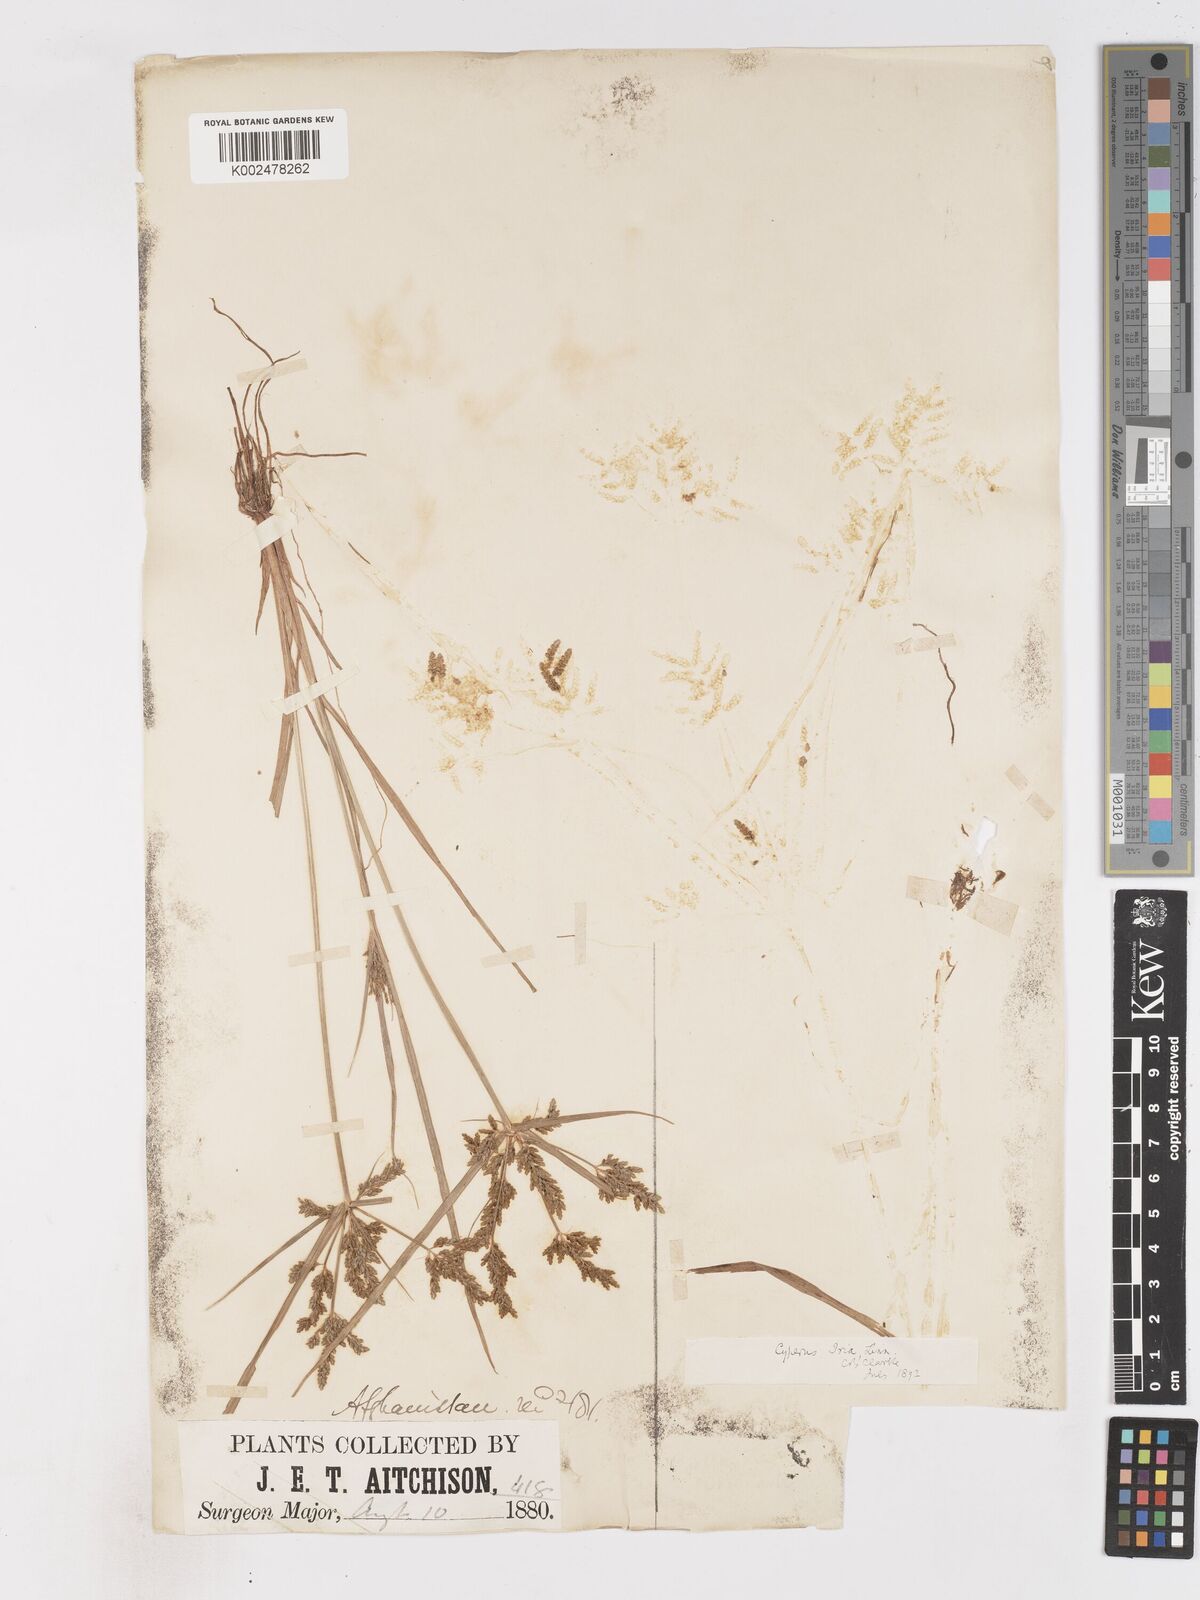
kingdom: Plantae
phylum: Tracheophyta
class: Liliopsida
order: Poales
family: Cyperaceae
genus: Cyperus
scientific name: Cyperus iria
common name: Ricefield flatsedge
